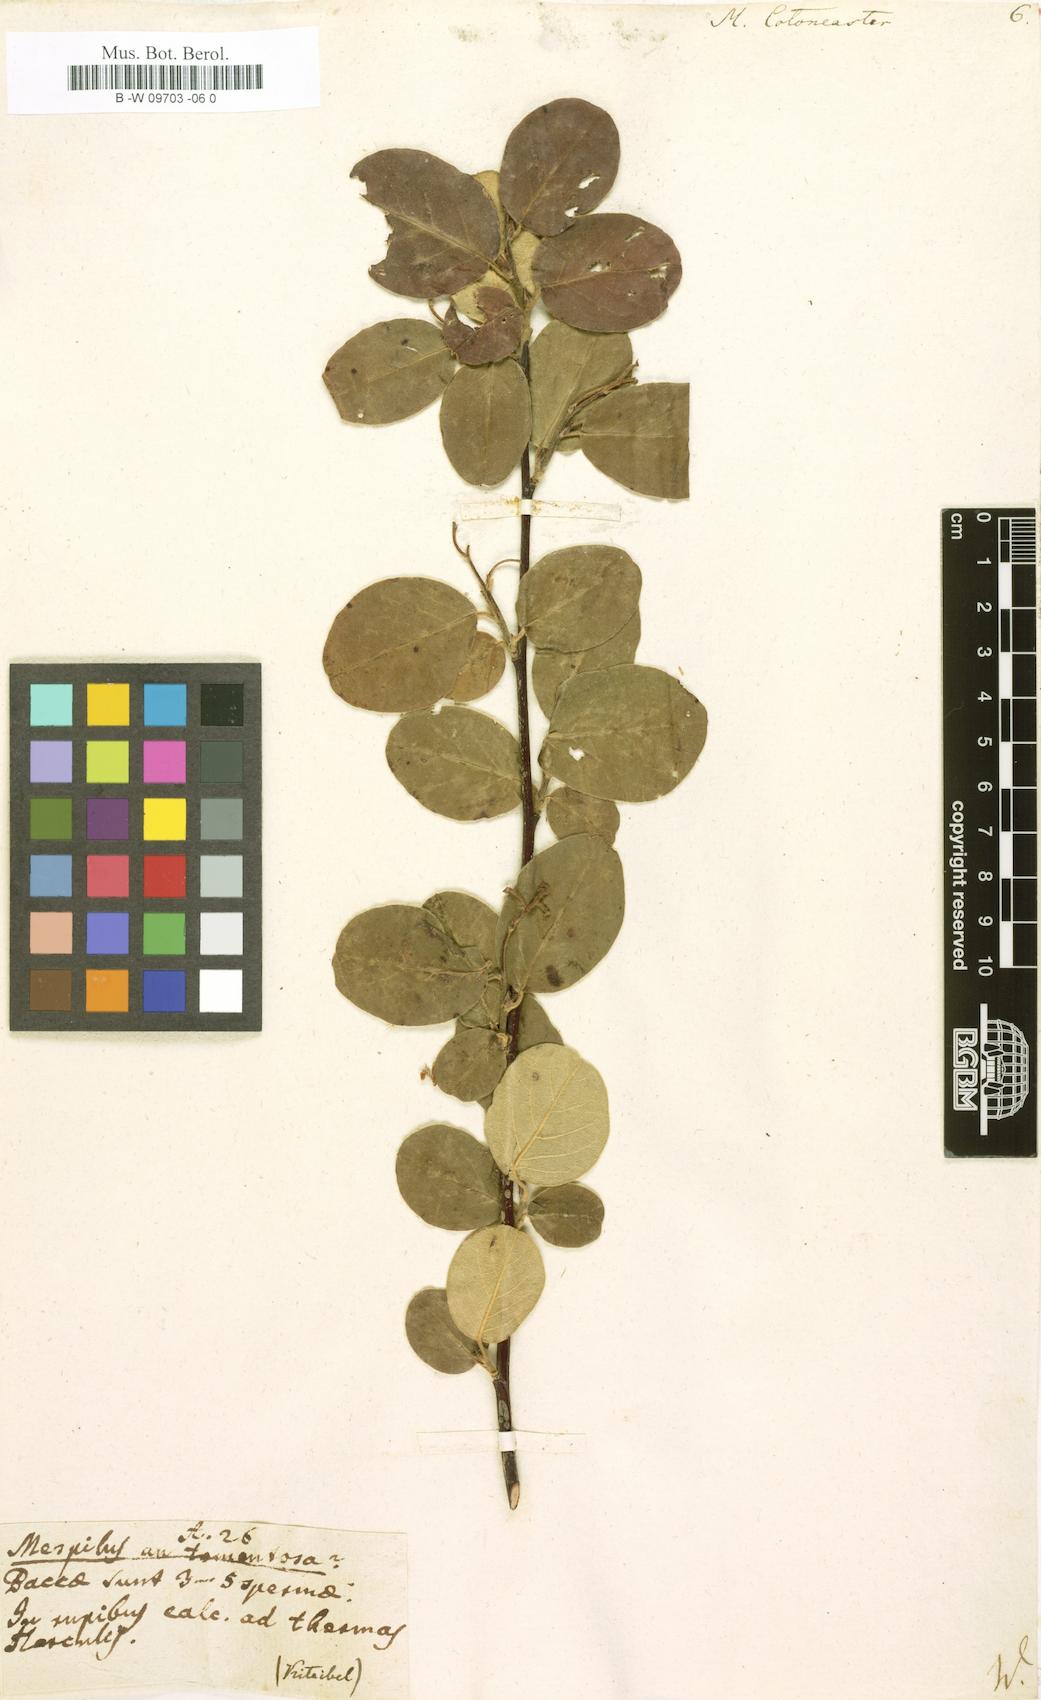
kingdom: Plantae
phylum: Tracheophyta
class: Magnoliopsida
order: Rosales
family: Rosaceae
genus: Cotoneaster
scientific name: Cotoneaster integerrimus
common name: Wild cotoneaster
